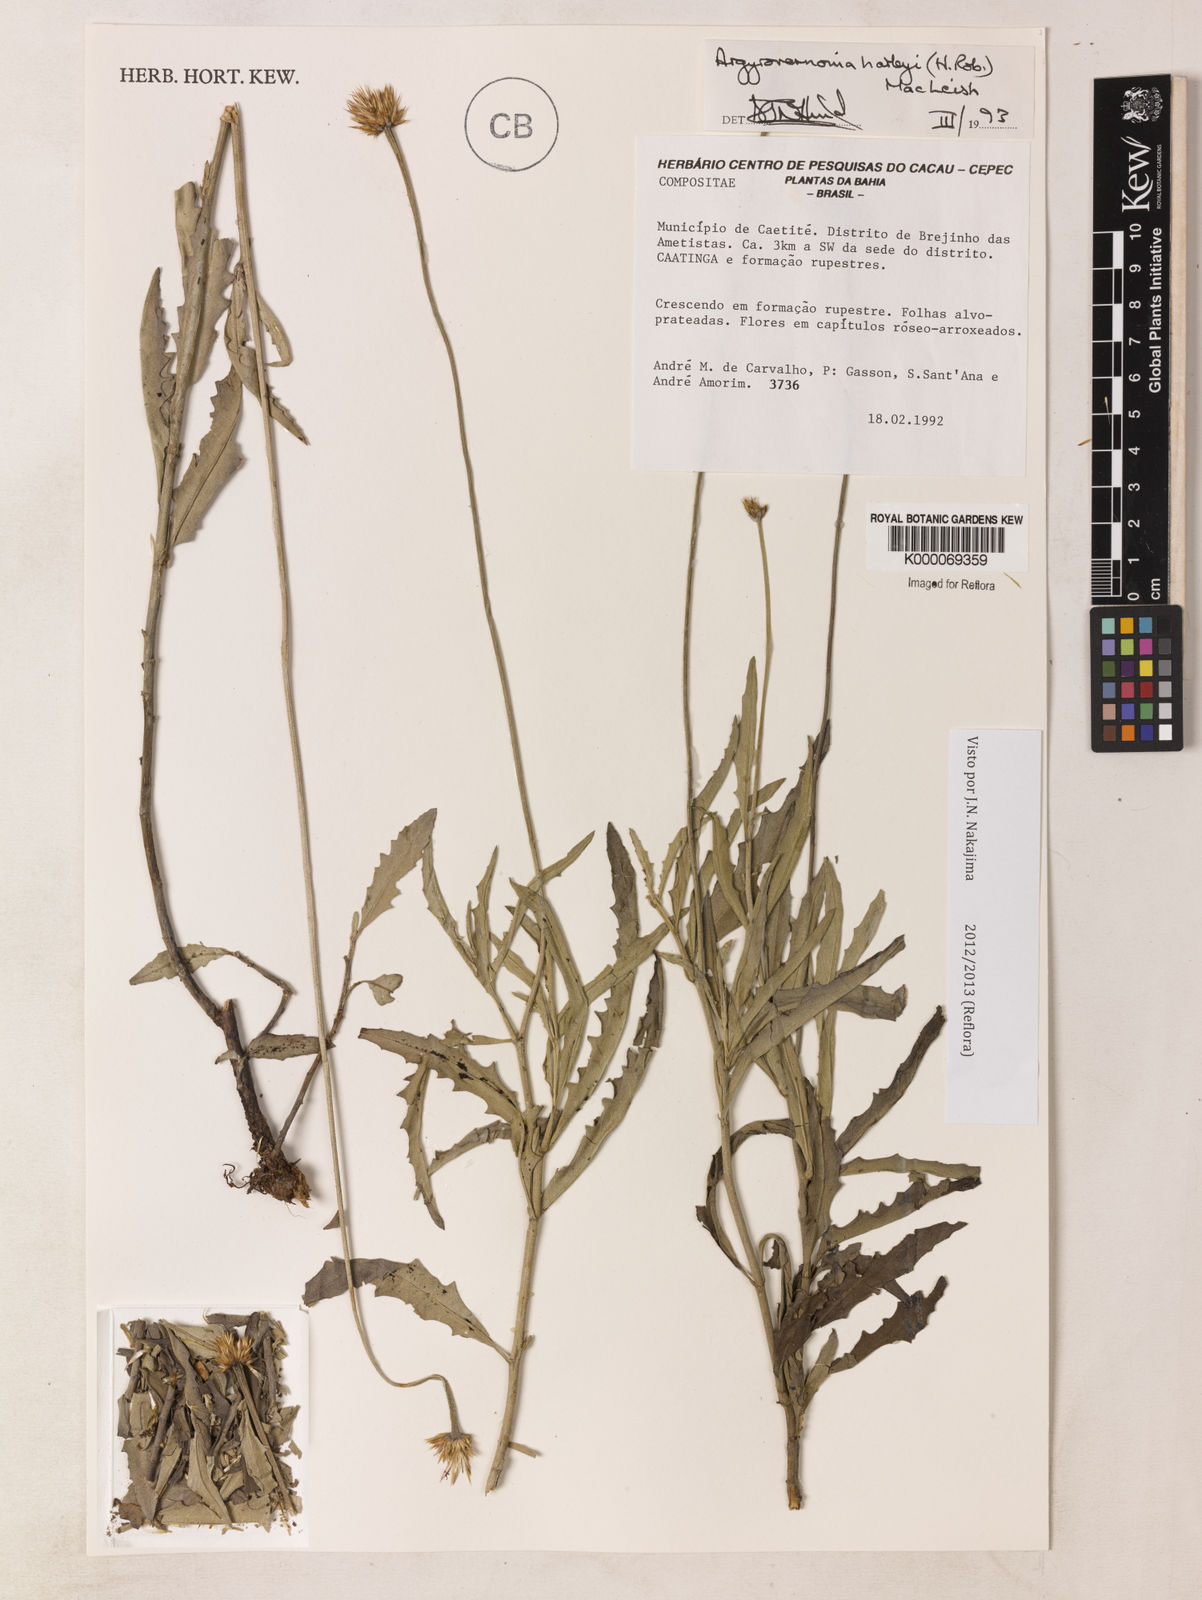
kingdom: Plantae
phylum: Tracheophyta
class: Magnoliopsida
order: Asterales
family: Asteraceae
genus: Chresta
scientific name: Chresta harleyi
